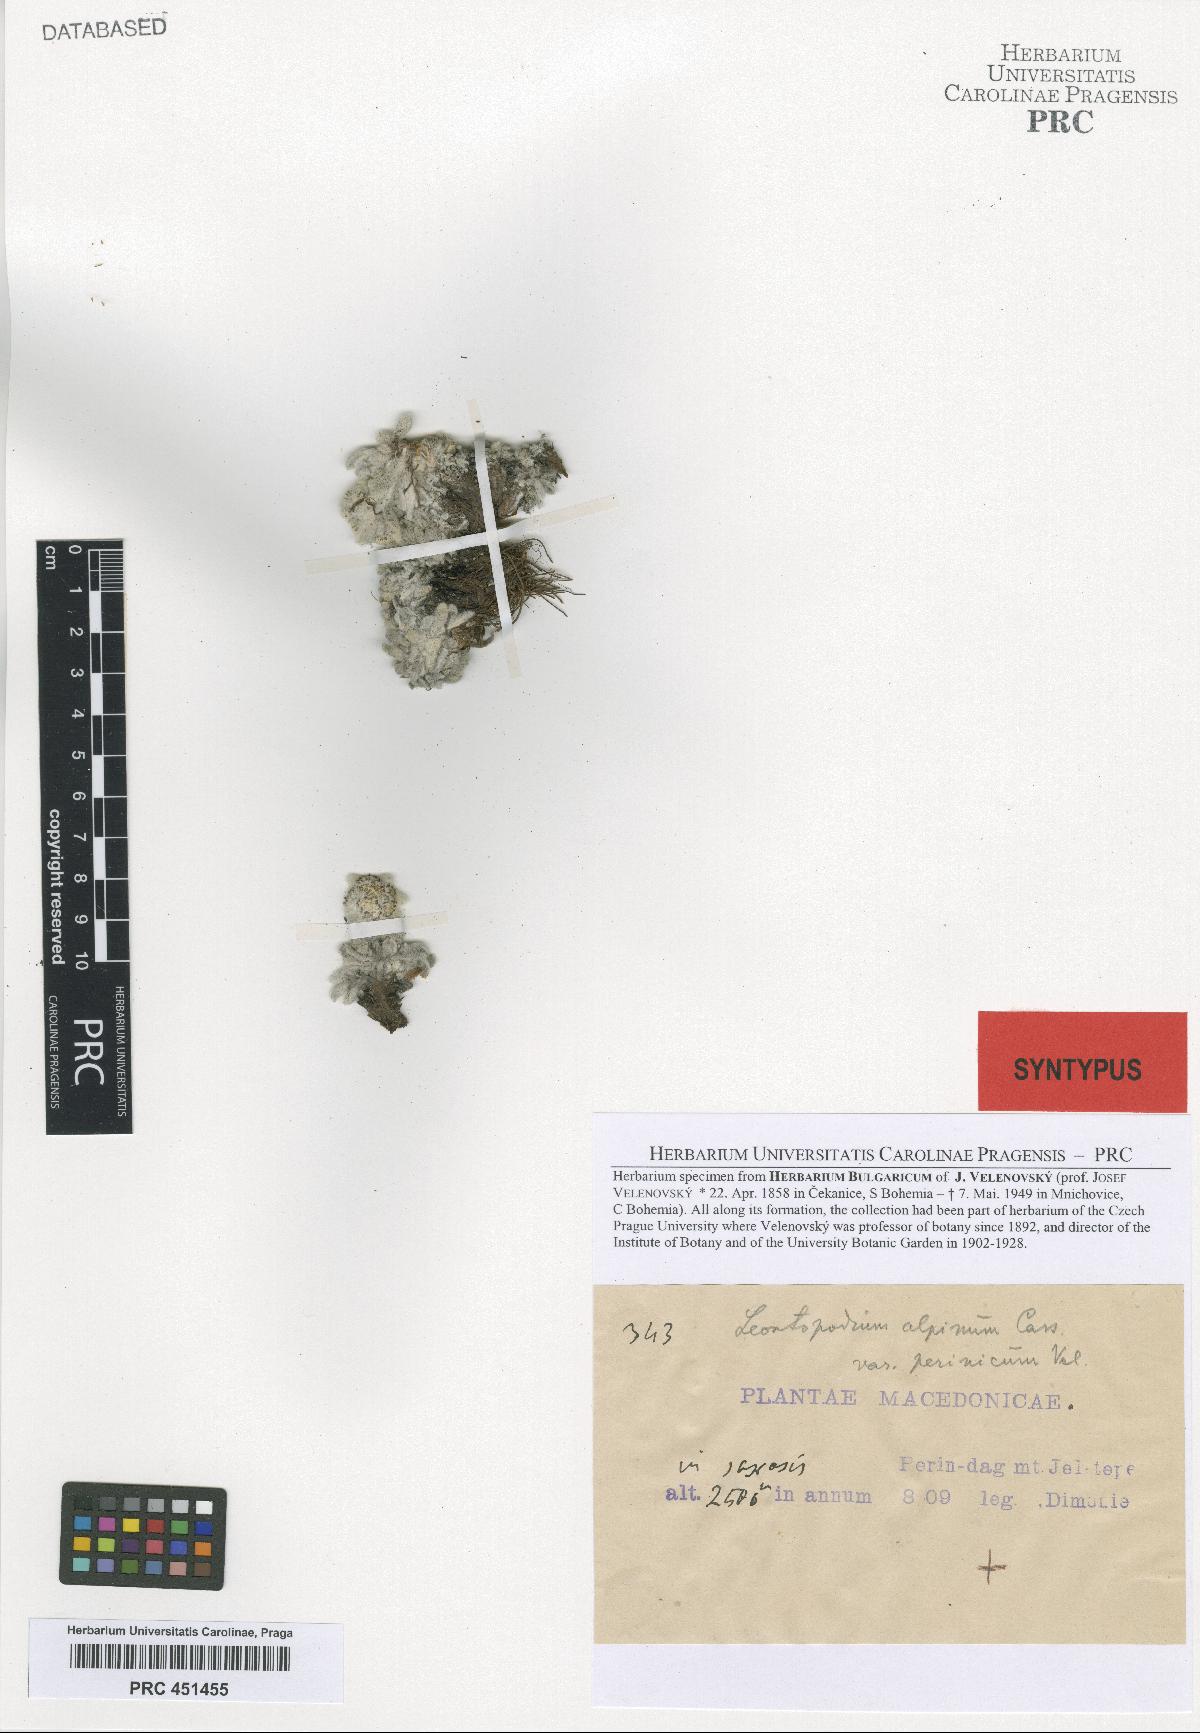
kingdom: Plantae
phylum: Tracheophyta
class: Magnoliopsida
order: Asterales
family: Asteraceae
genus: Leontopodium
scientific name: Leontopodium nivale
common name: Edelweiss
